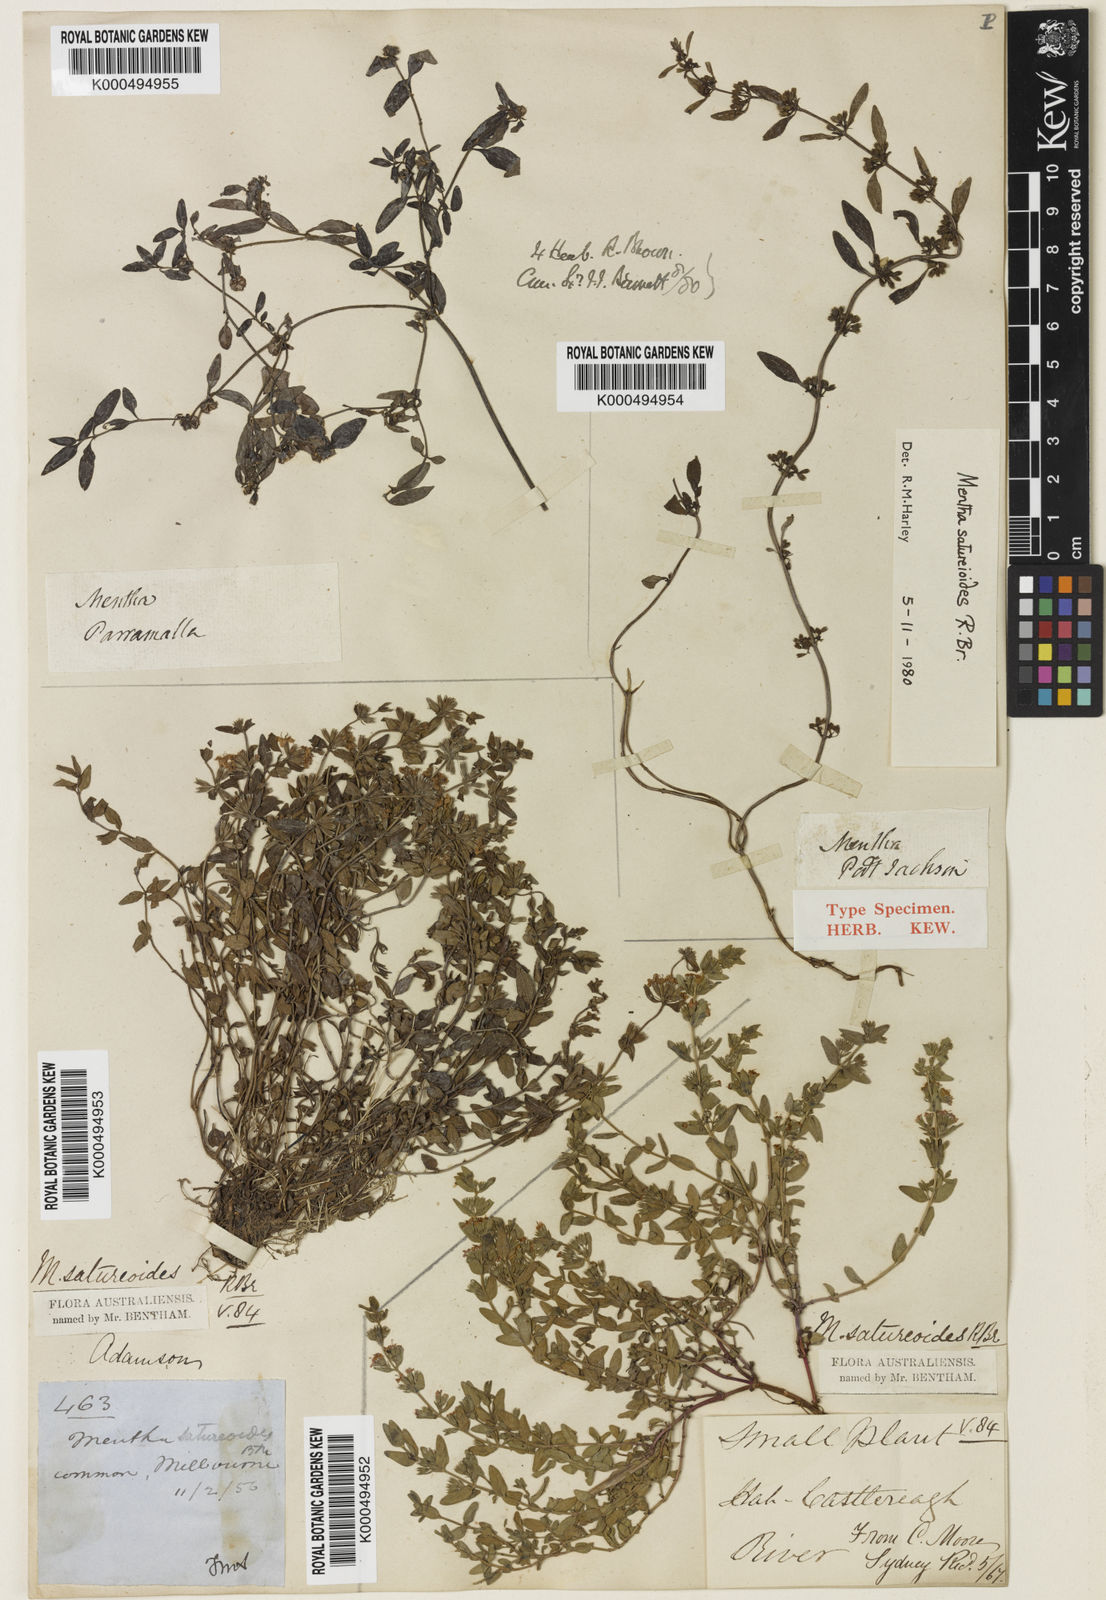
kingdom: Plantae
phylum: Tracheophyta
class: Magnoliopsida
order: Lamiales
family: Lamiaceae
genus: Mentha
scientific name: Mentha satureioides
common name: Brisbane pennyroyal
